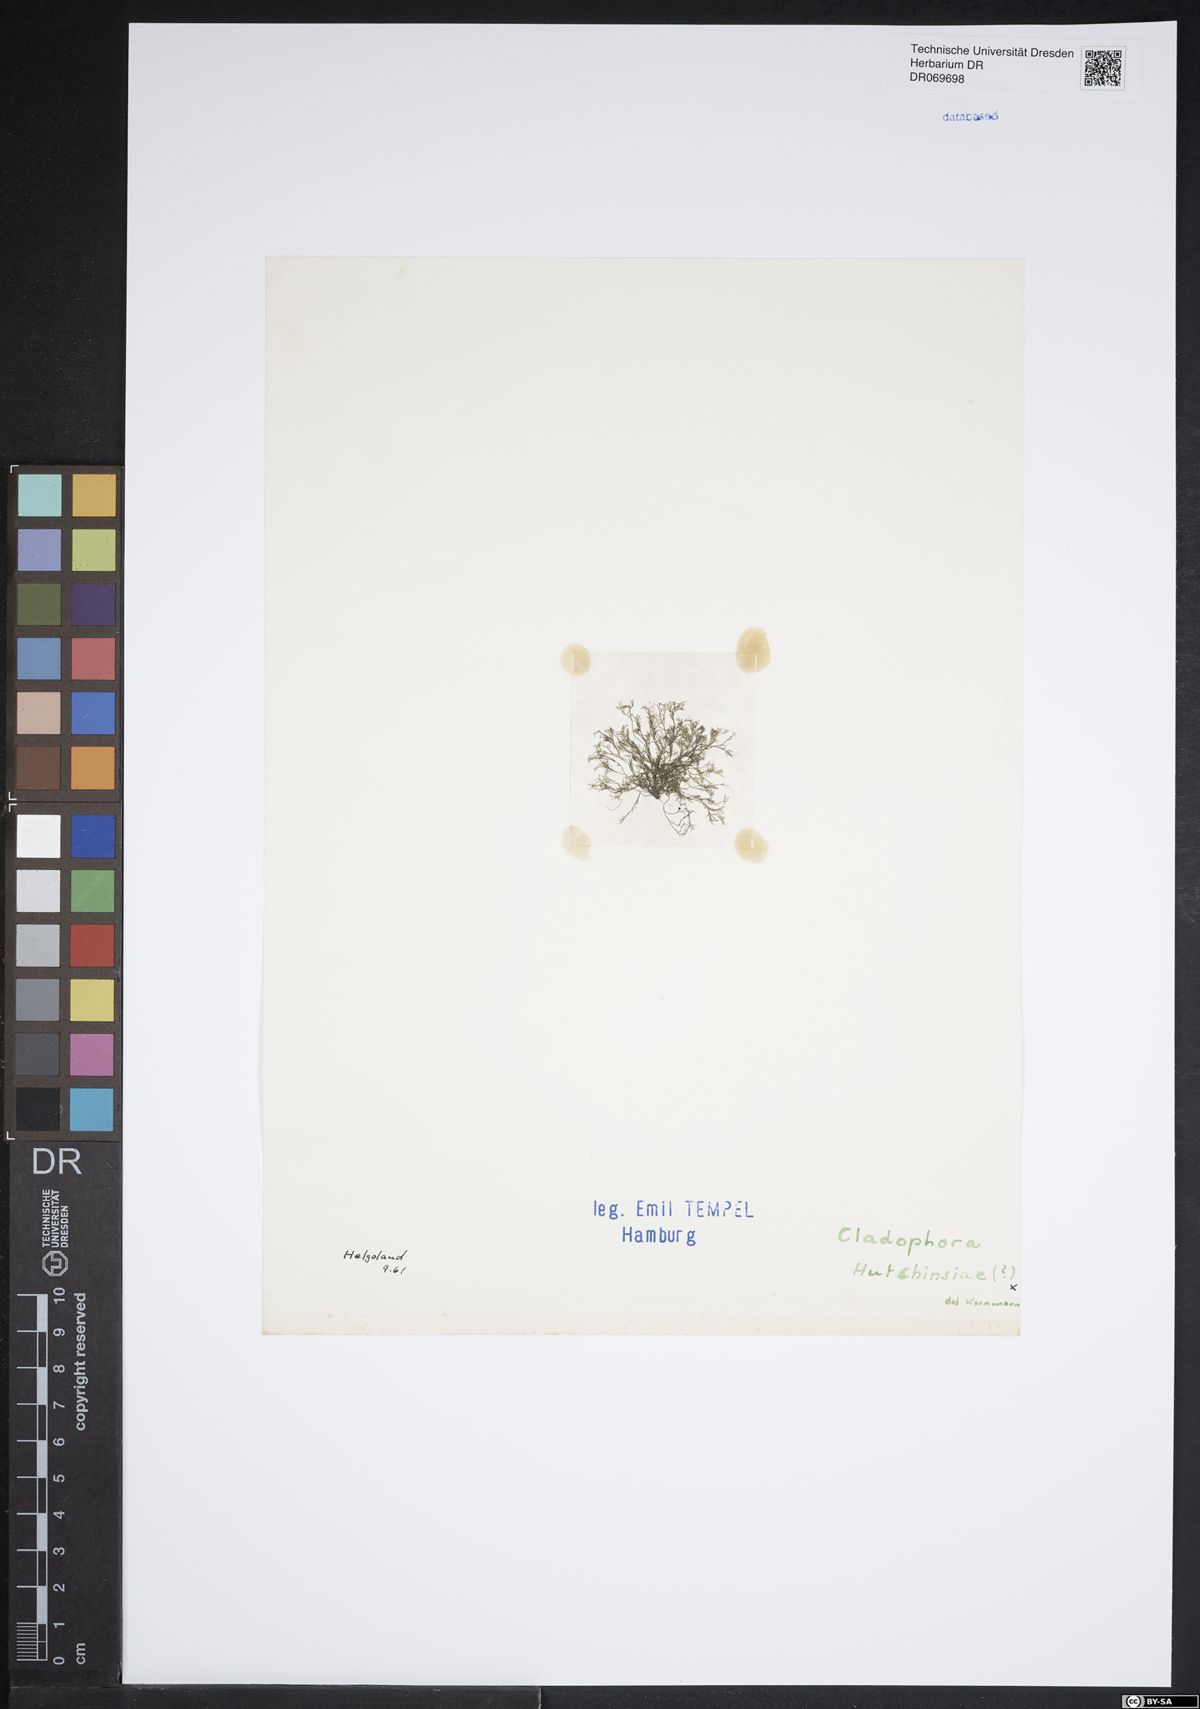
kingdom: Plantae
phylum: Chlorophyta
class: Ulvophyceae
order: Cladophorales
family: Cladophoraceae
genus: Cladophora
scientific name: Cladophora hutchinsiae
